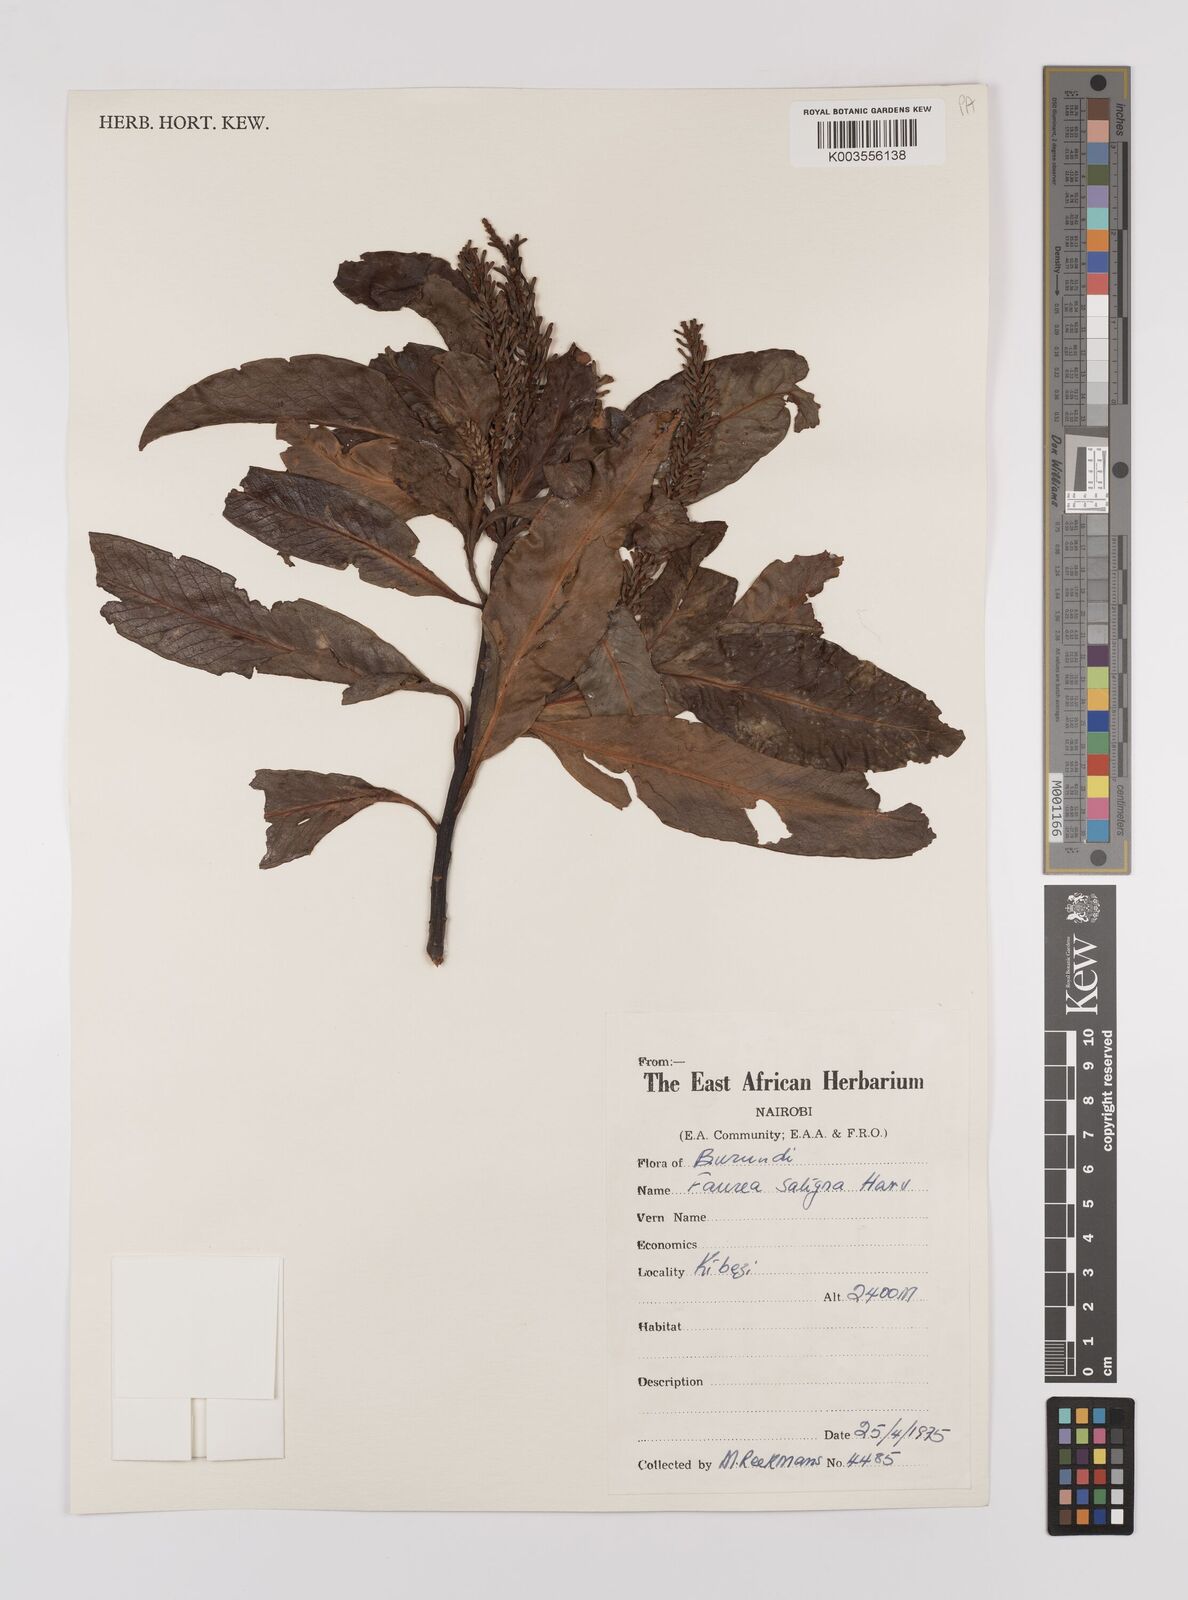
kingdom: Plantae
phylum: Tracheophyta
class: Magnoliopsida
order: Proteales
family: Proteaceae
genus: Faurea
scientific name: Faurea saligna
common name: African bean
